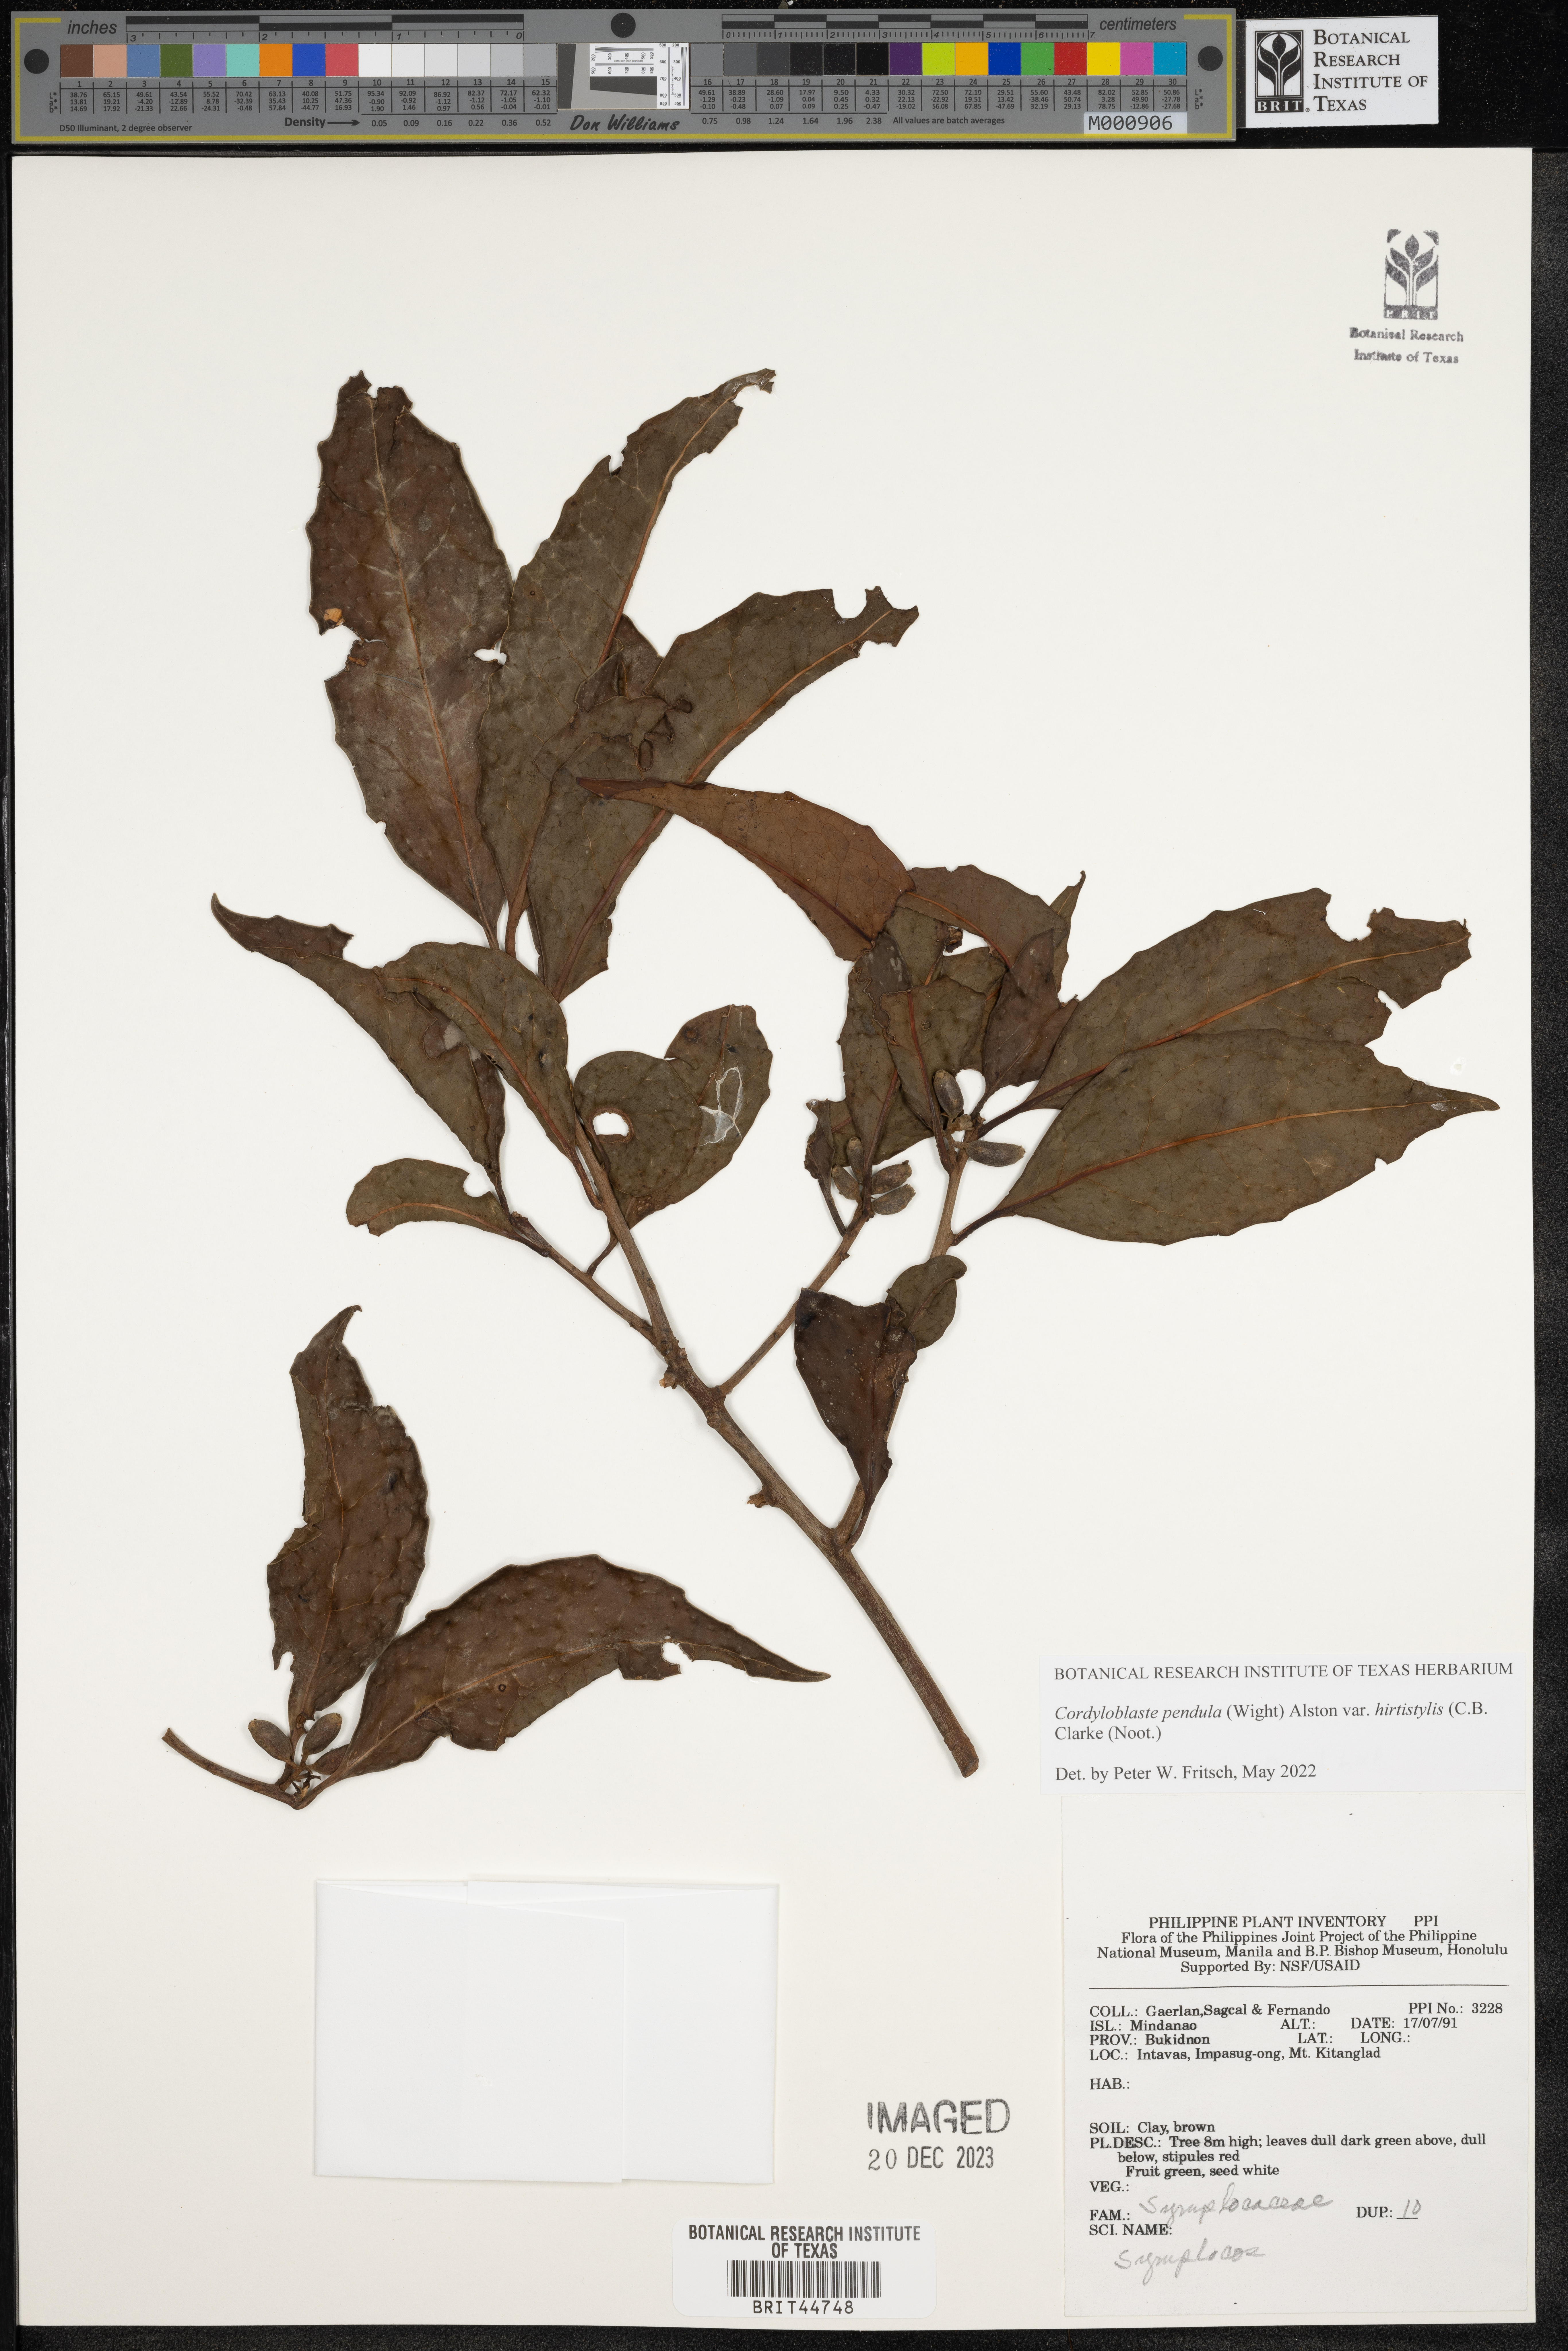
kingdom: Plantae
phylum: Tracheophyta
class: Magnoliopsida
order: Ericales
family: Symplocaceae
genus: Symplocos
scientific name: Symplocos pendula
